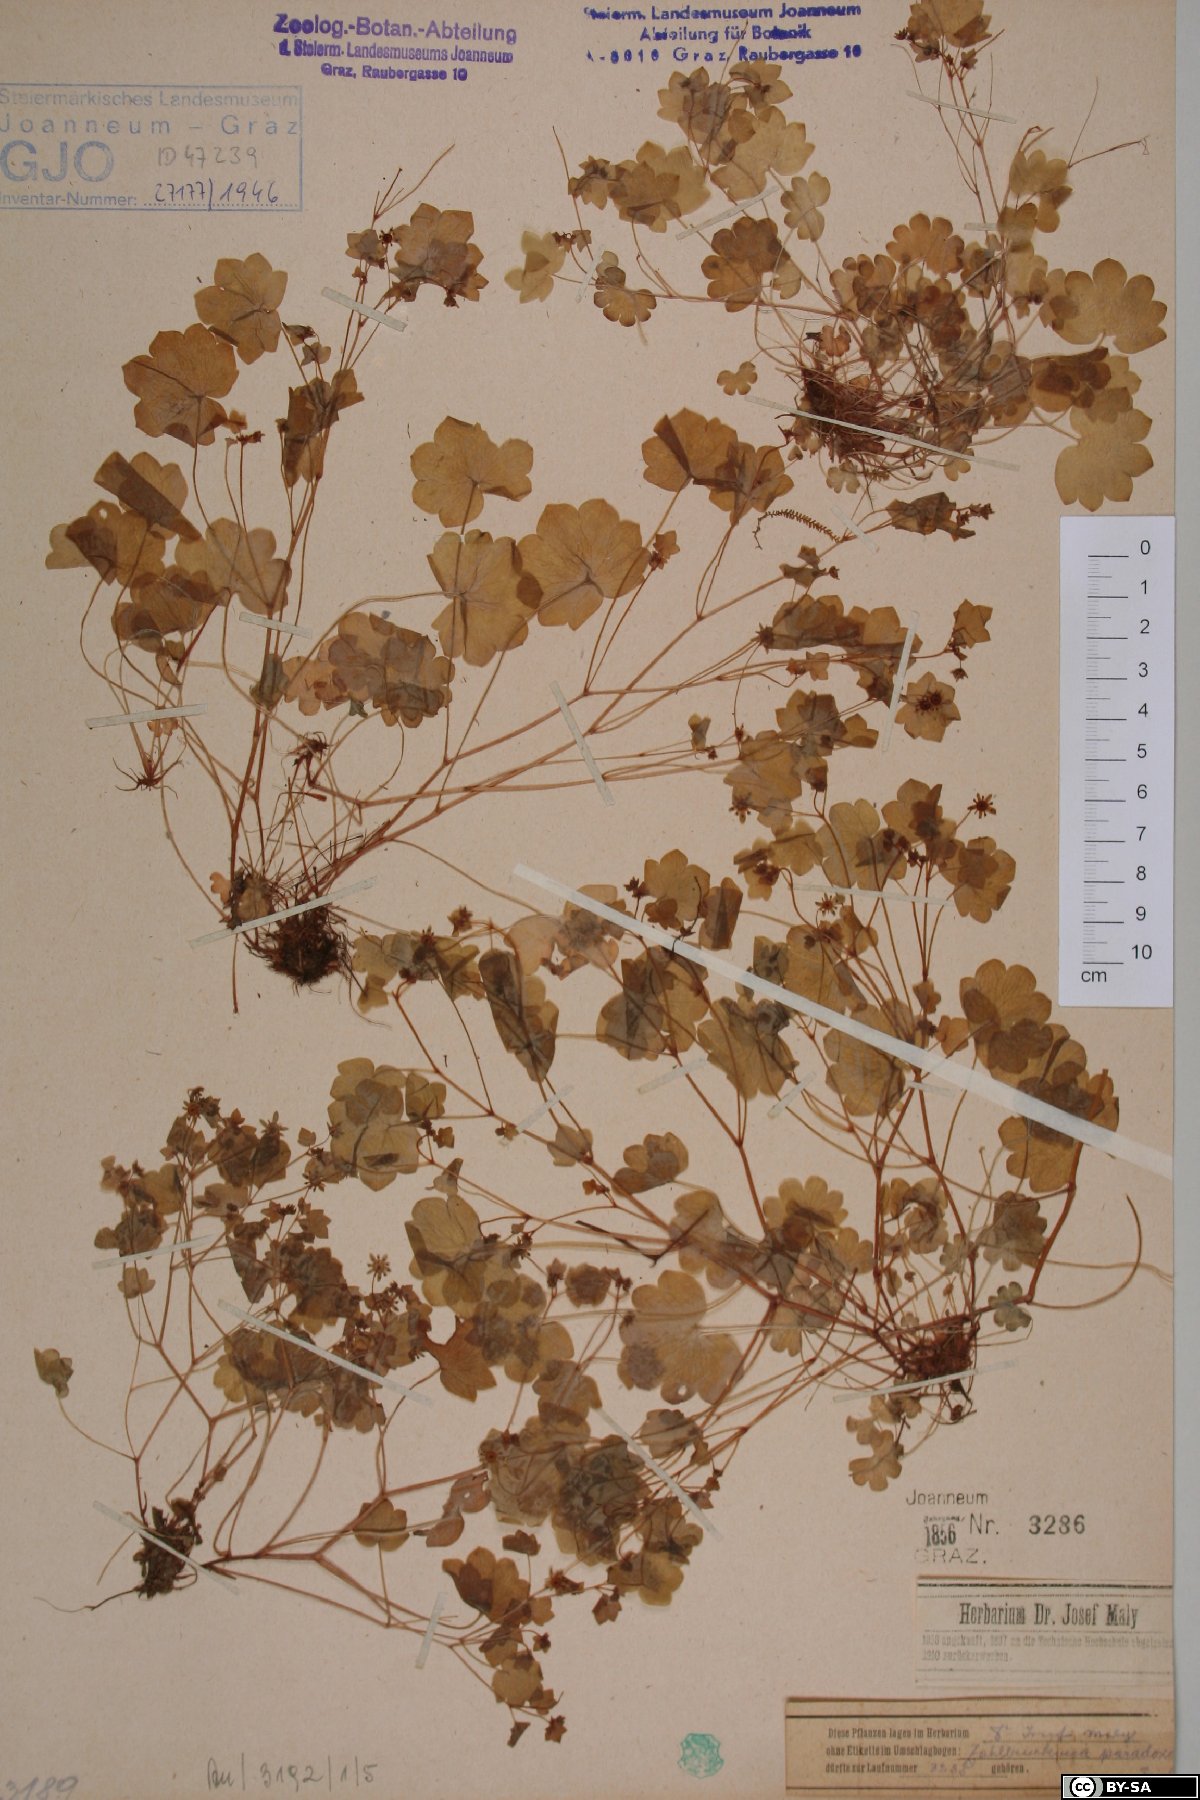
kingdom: Plantae
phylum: Tracheophyta
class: Magnoliopsida
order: Saxifragales
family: Saxifragaceae
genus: Saxifraga
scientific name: Saxifraga paradoxa
